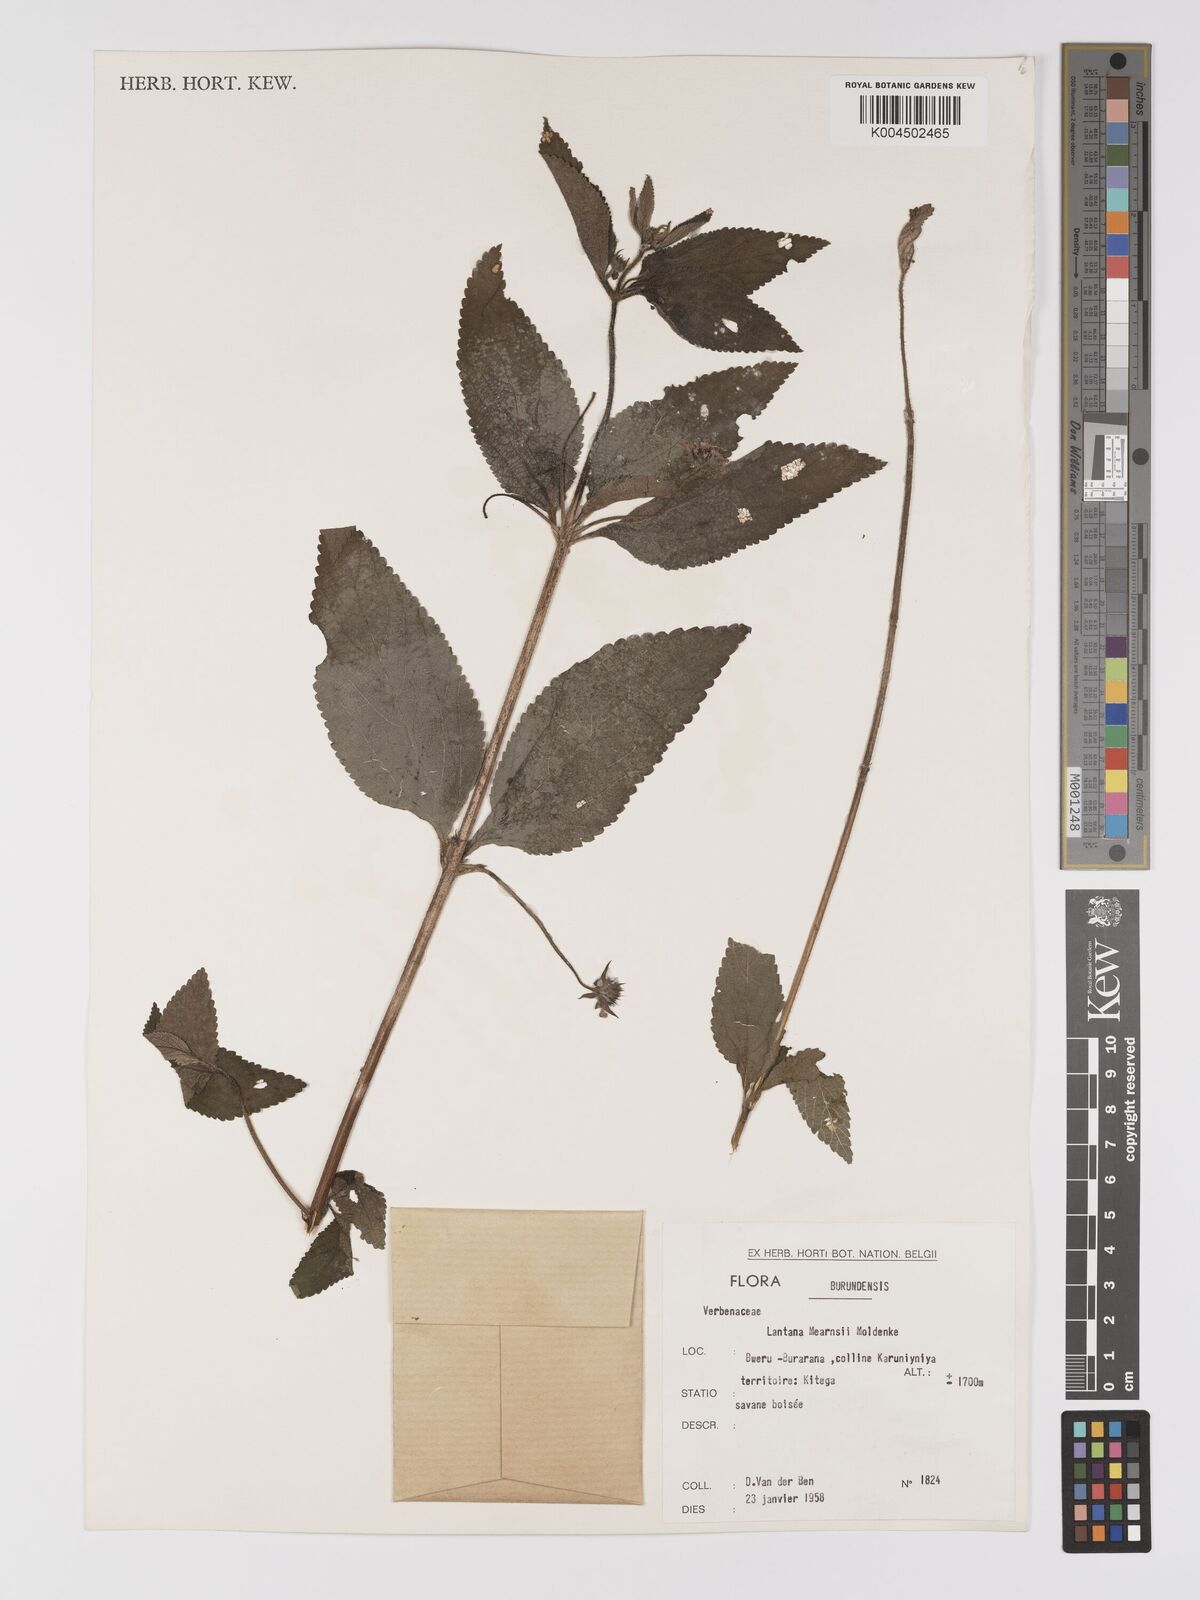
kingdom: Plantae
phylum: Tracheophyta
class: Magnoliopsida
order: Lamiales
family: Verbenaceae
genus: Lantana
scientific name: Lantana
